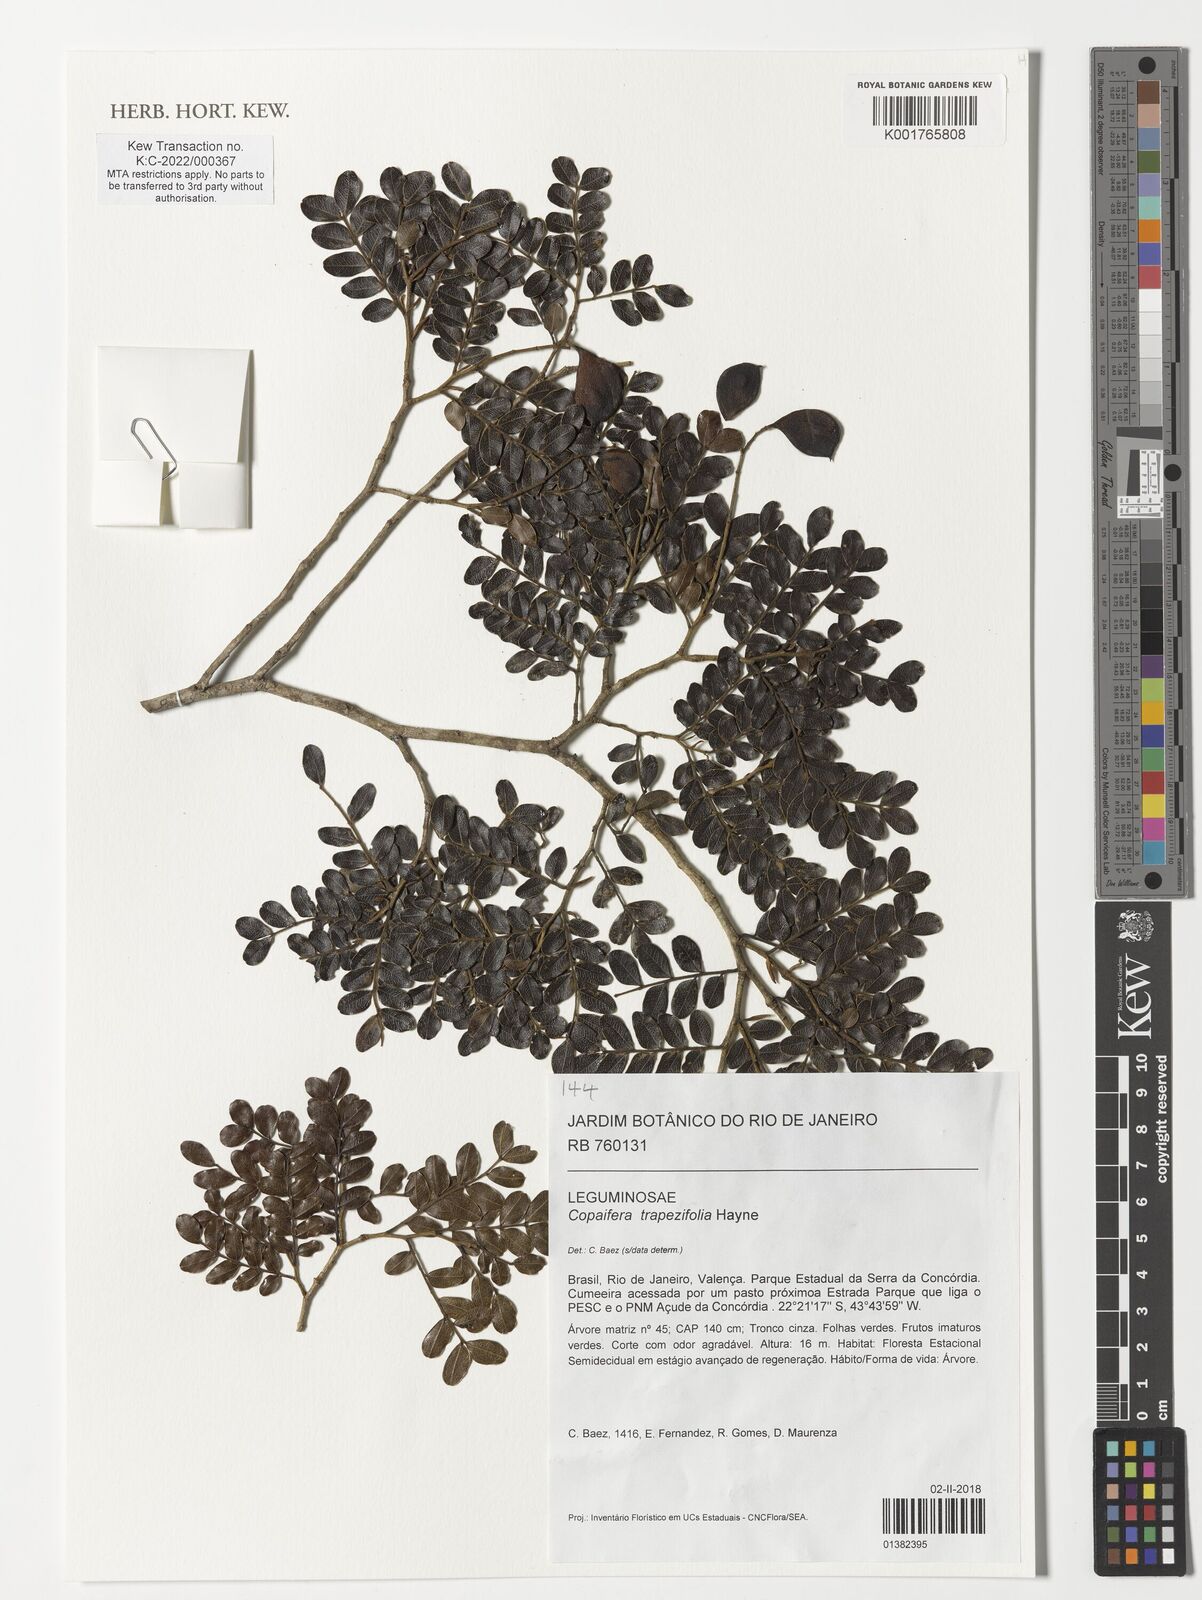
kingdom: Plantae
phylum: Tracheophyta
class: Magnoliopsida
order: Fabales
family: Fabaceae
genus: Copaifera
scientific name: Copaifera trapezifolia
